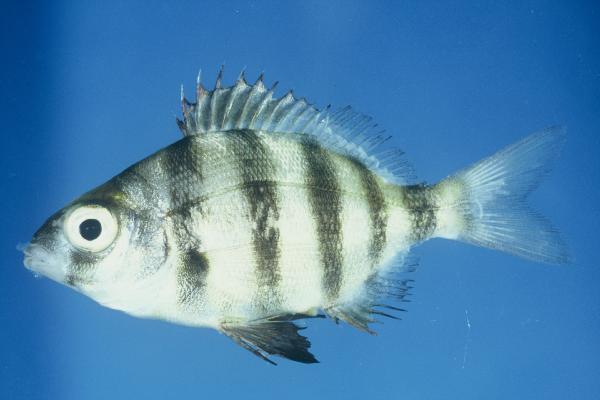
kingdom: Animalia
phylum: Chordata
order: Perciformes
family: Sparidae
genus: Diplodus
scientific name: Diplodus hottentotus
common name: Zebra
